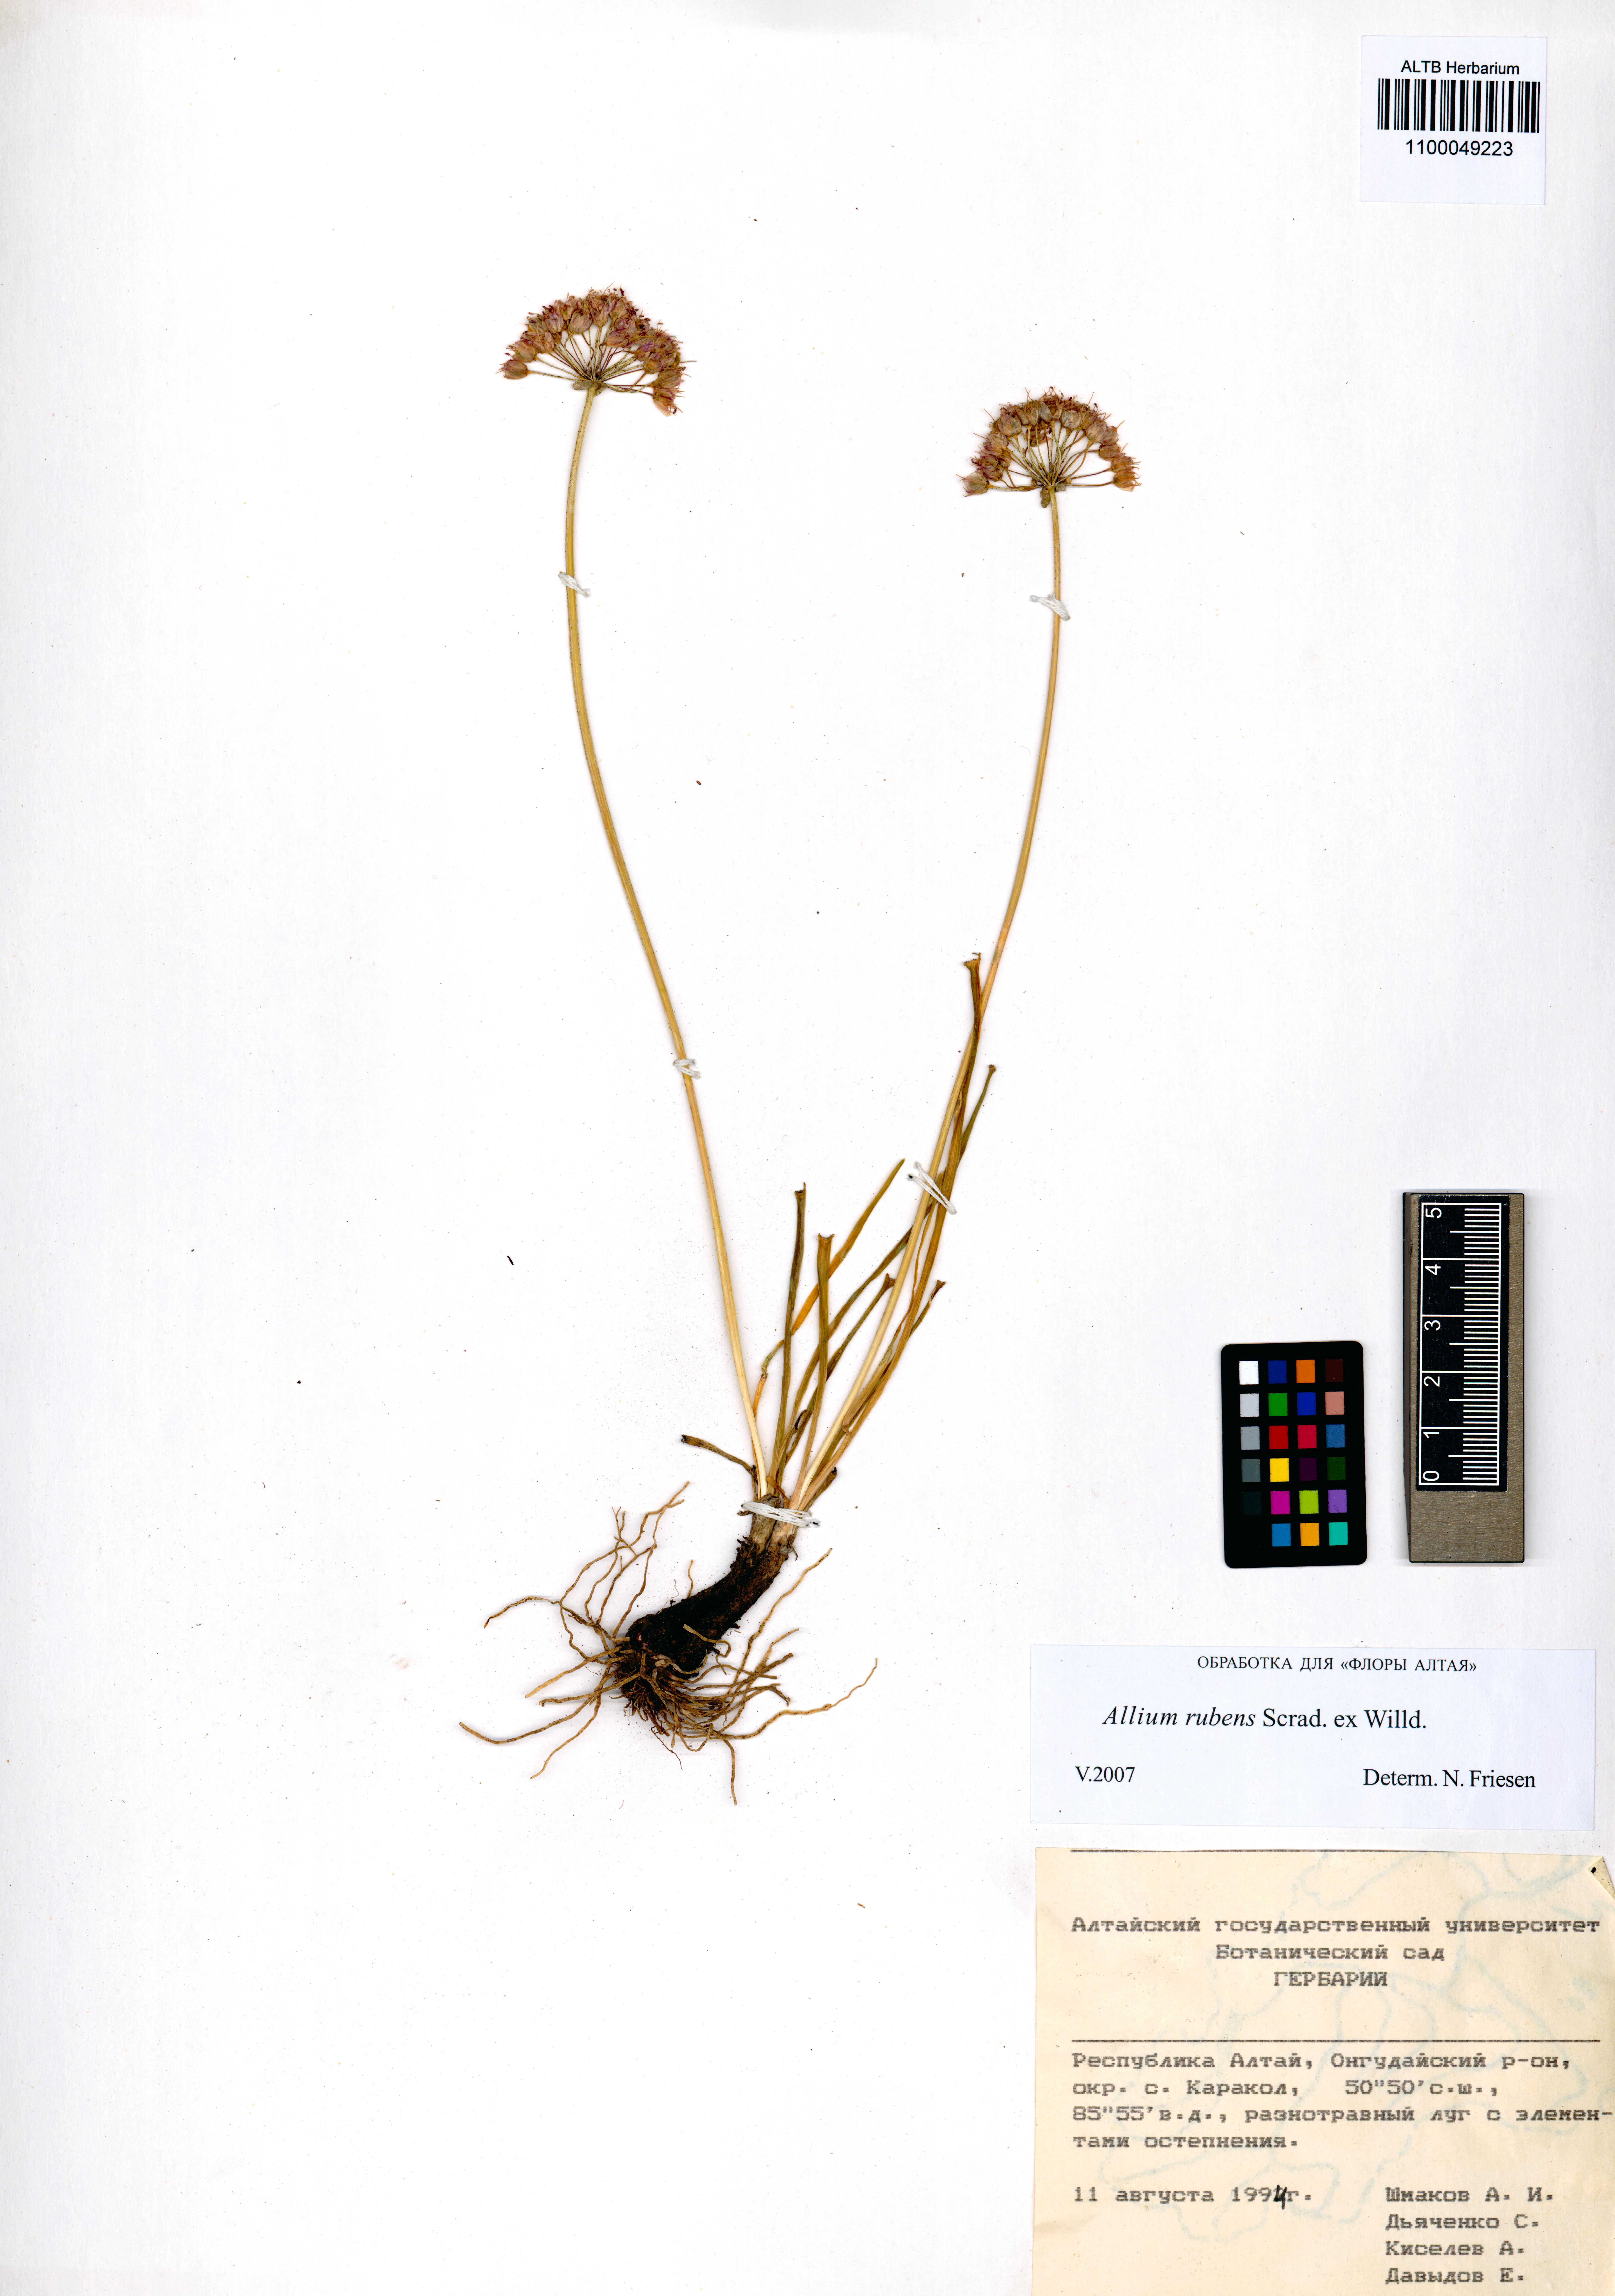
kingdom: Plantae
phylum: Tracheophyta
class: Magnoliopsida
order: Asterales
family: Campanulaceae
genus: Campanula
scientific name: Campanula sibirica
